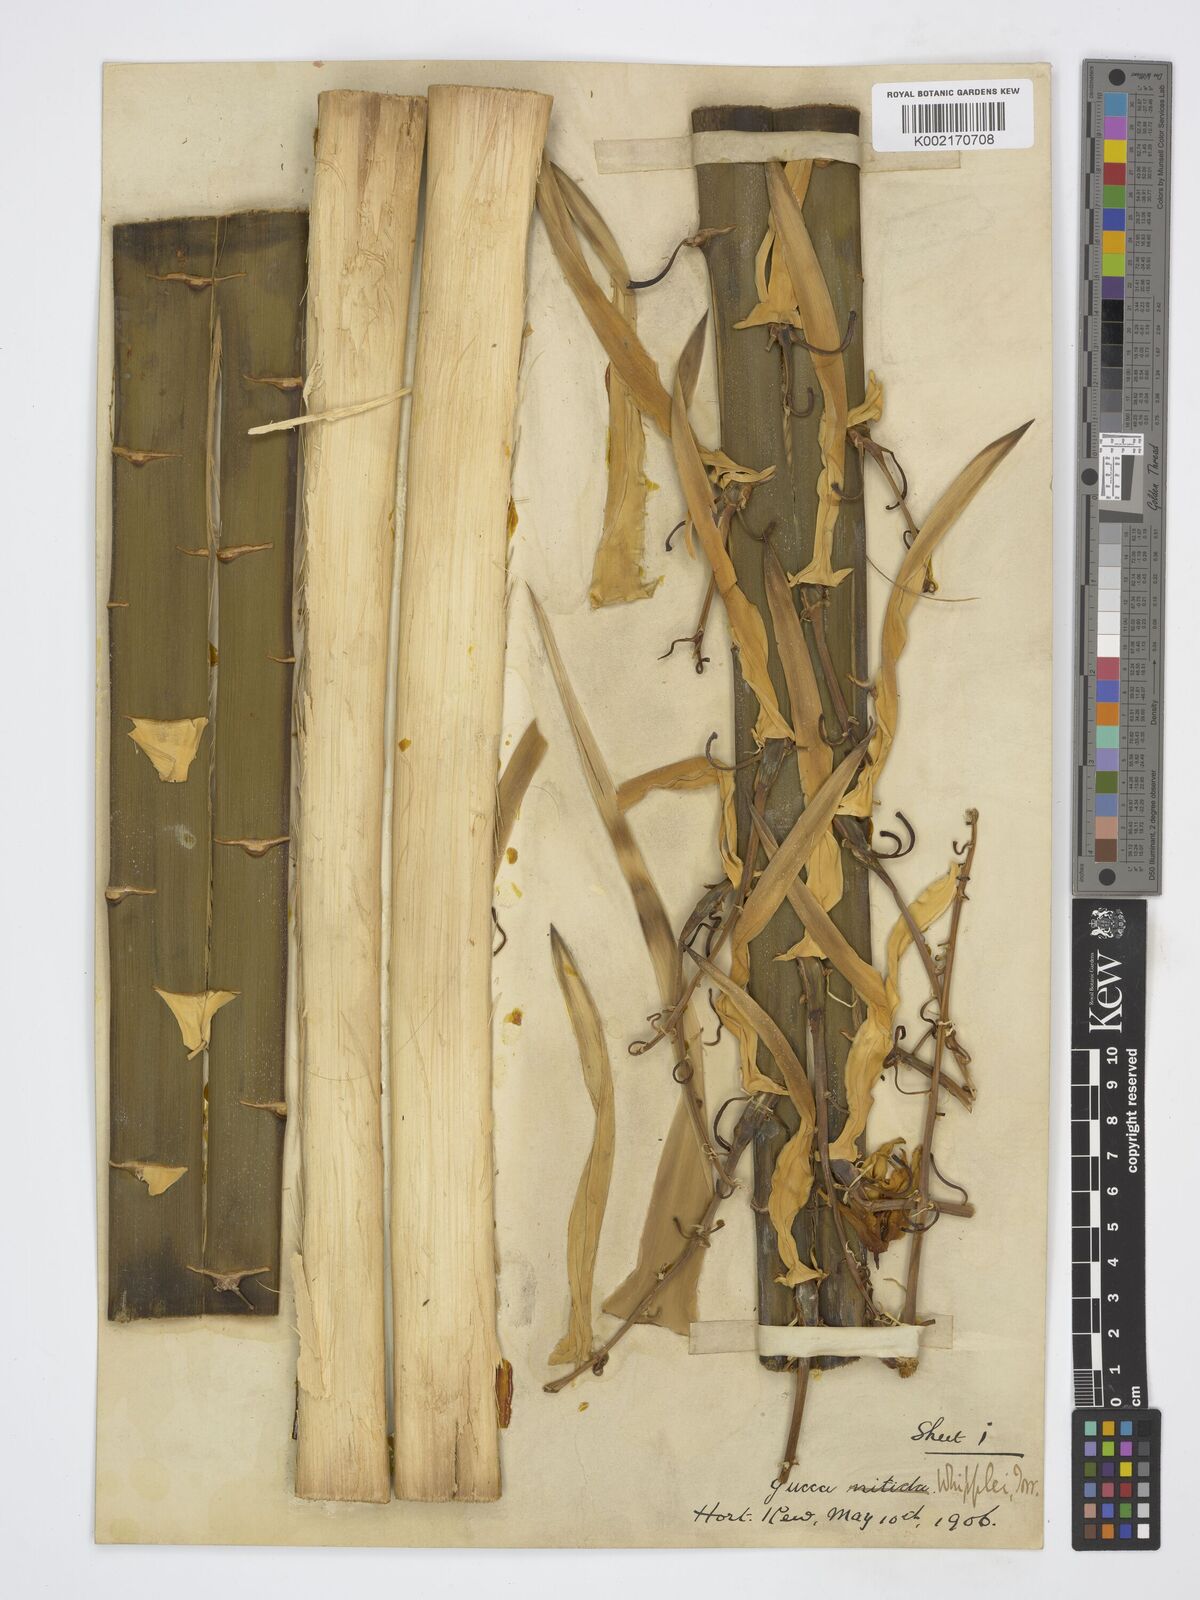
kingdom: Plantae
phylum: Tracheophyta
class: Liliopsida
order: Asparagales
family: Asparagaceae
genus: Yucca
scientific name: Yucca
